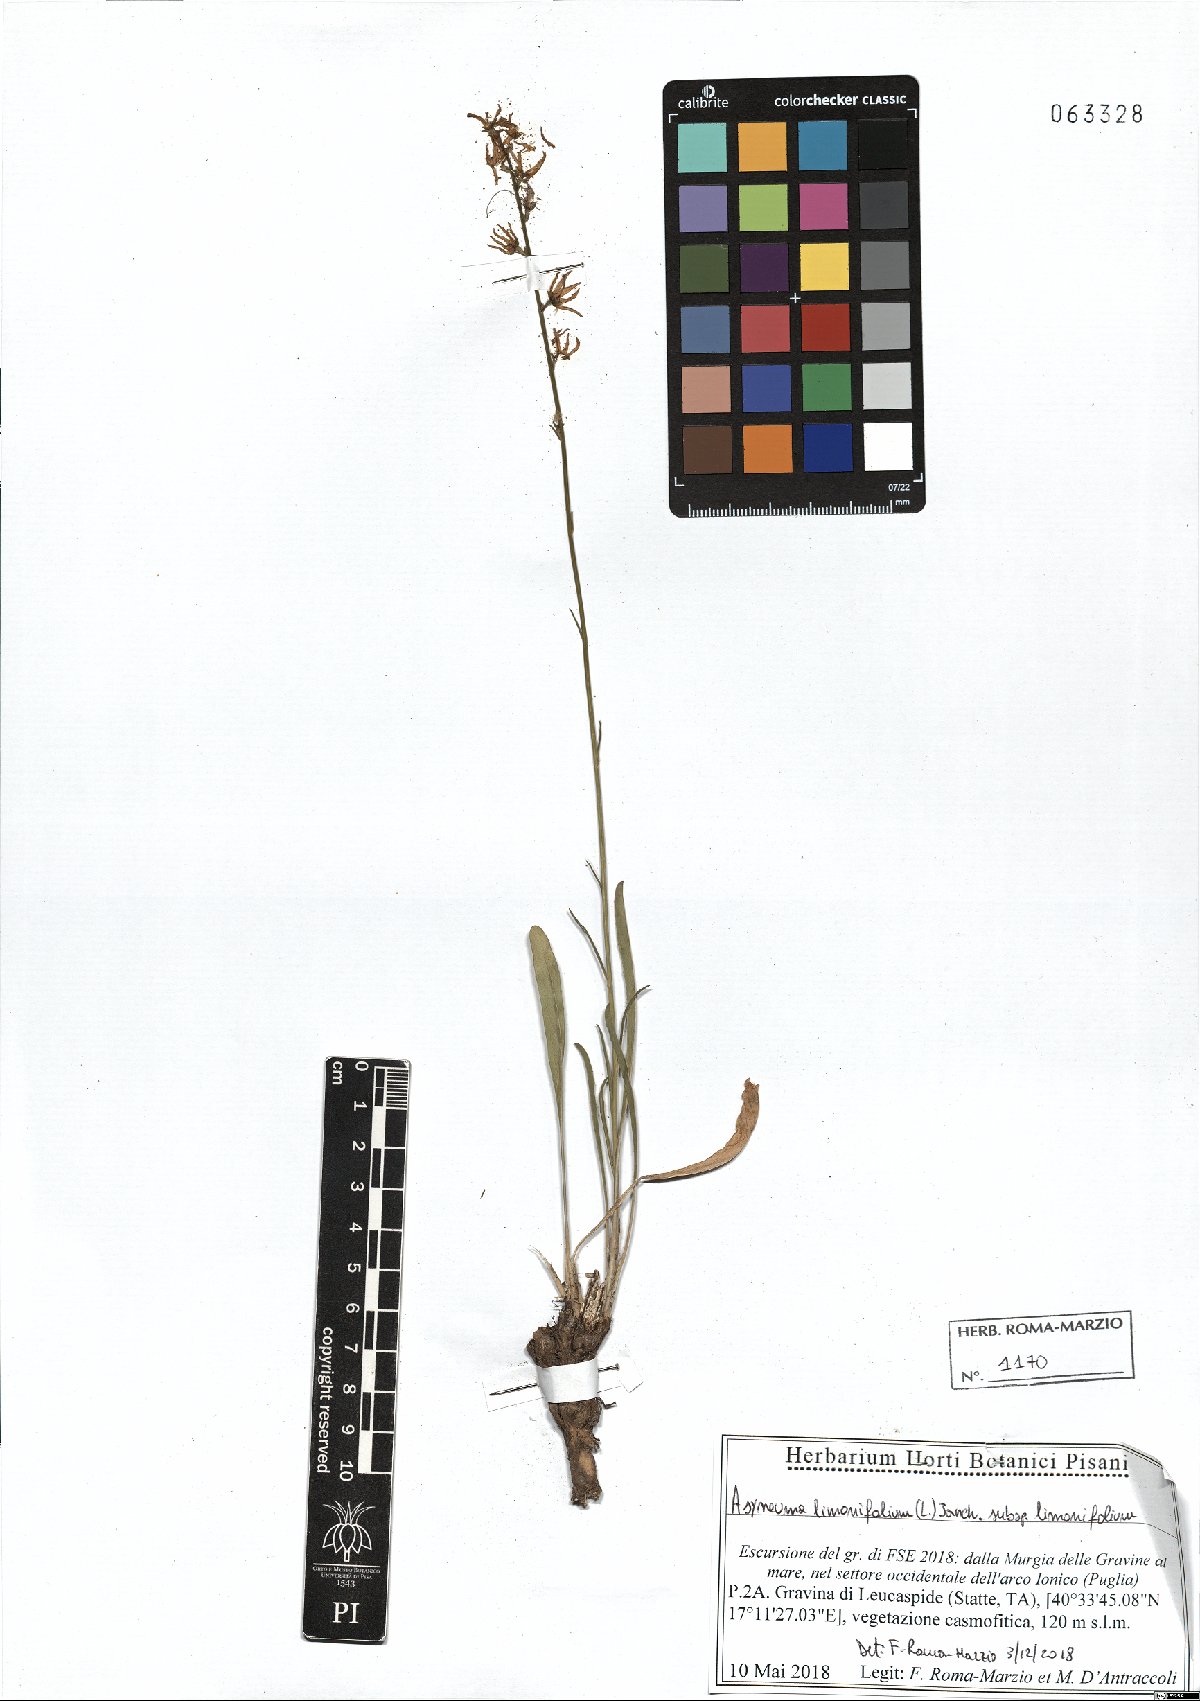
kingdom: Plantae
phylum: Tracheophyta
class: Magnoliopsida
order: Asterales
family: Campanulaceae
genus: Asyneuma
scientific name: Asyneuma limonifolium
